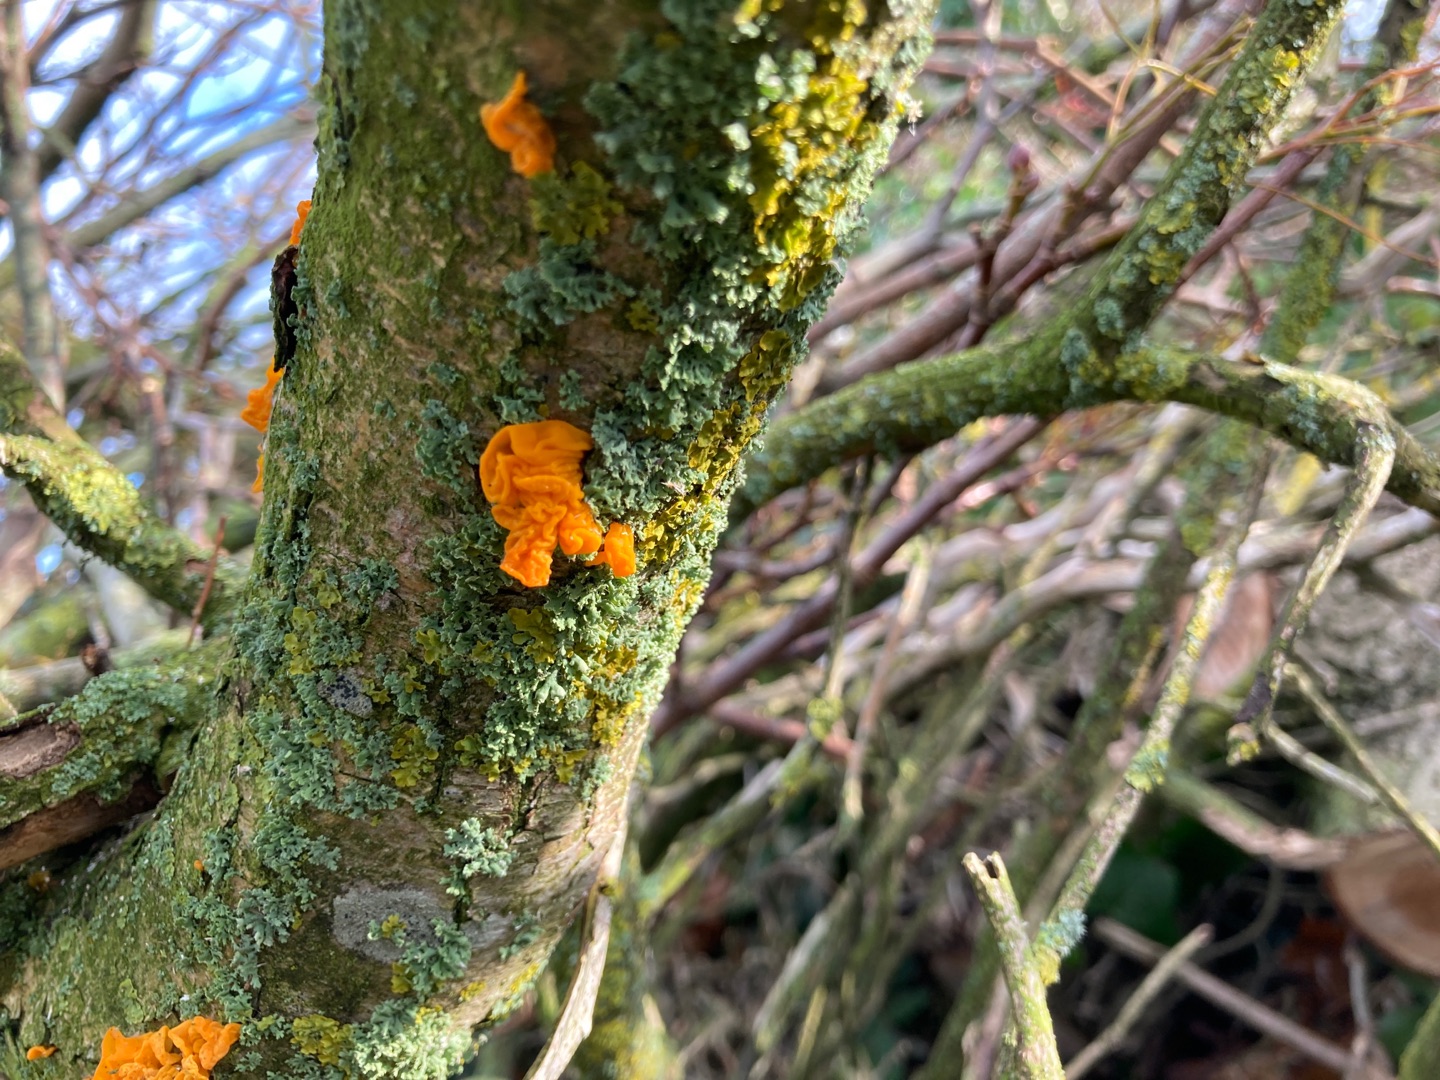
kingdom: Fungi
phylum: Basidiomycota
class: Tremellomycetes
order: Tremellales
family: Tremellaceae
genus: Tremella
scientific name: Tremella mesenterica
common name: Gul bævresvamp
